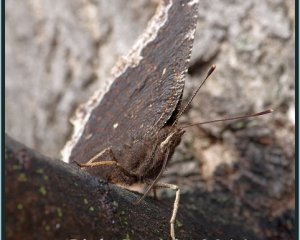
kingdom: Animalia
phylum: Arthropoda
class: Insecta
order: Lepidoptera
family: Nymphalidae
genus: Nymphalis
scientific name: Nymphalis antiopa
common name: Mourning Cloak
